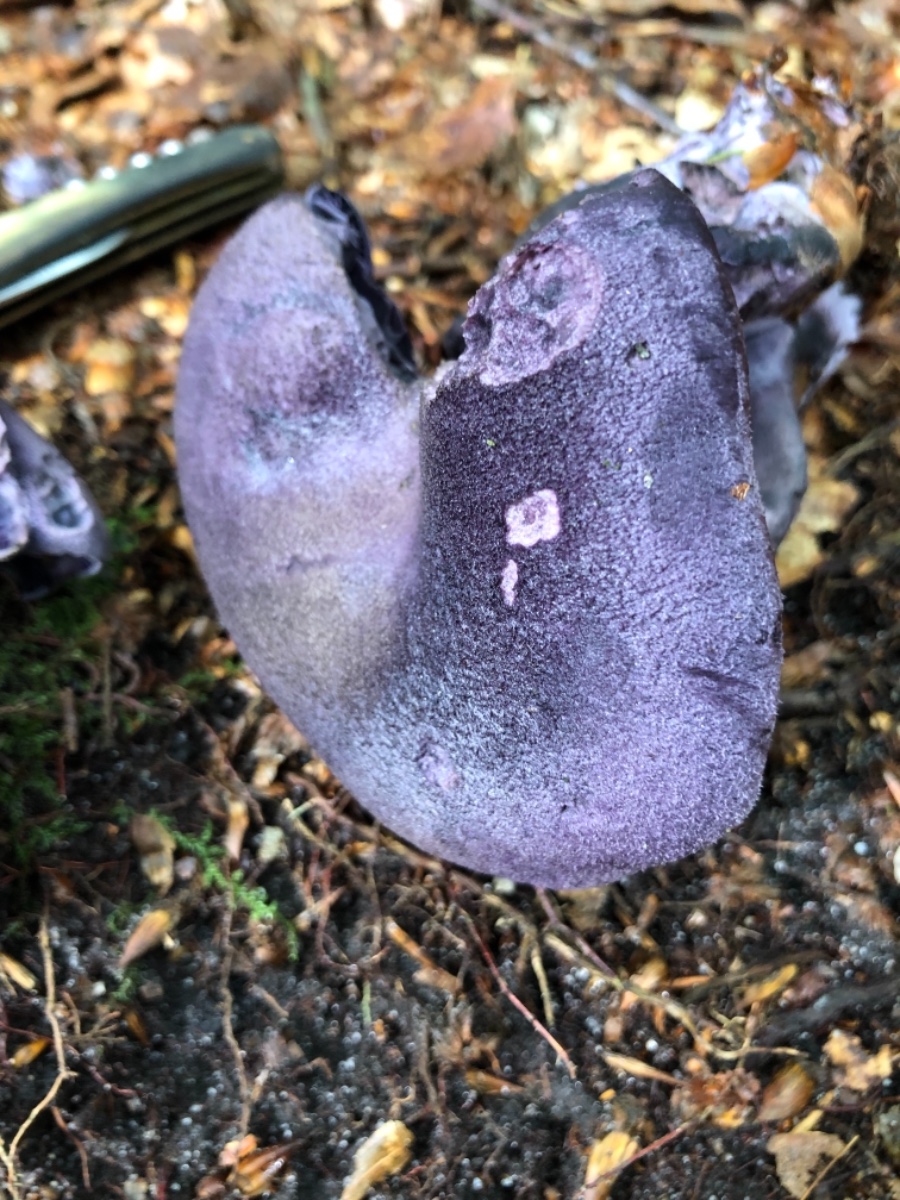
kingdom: Fungi
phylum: Basidiomycota
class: Agaricomycetes
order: Agaricales
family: Cortinariaceae
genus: Cortinarius
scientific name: Cortinarius violaceus
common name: mørkviolet slørhat
